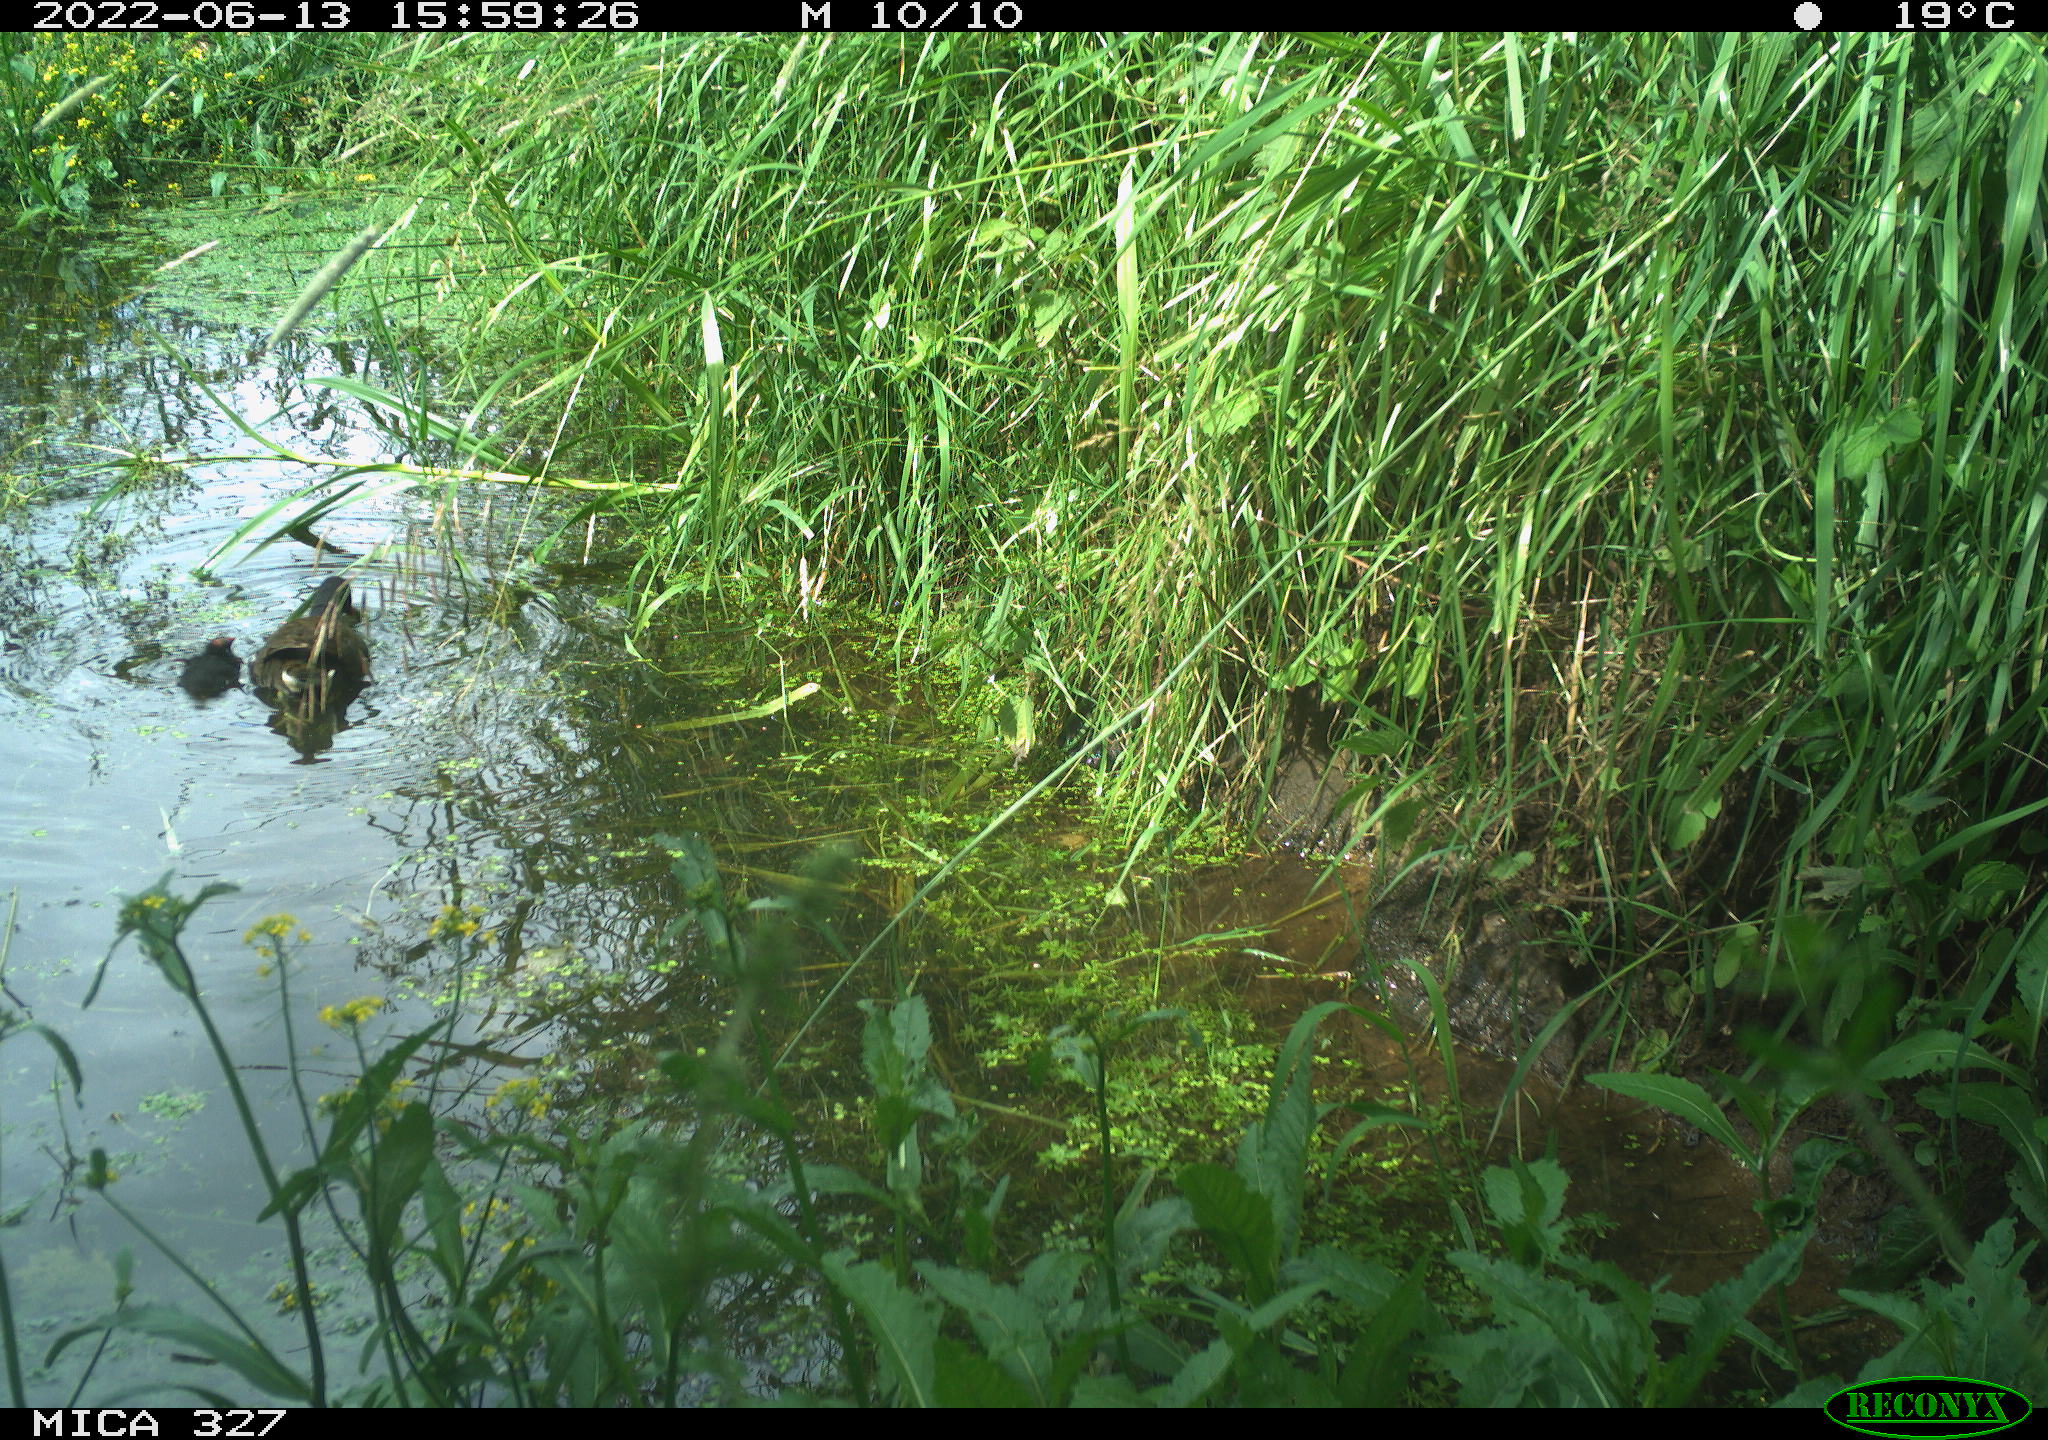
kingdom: Animalia
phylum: Chordata
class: Aves
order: Gruiformes
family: Rallidae
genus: Gallinula
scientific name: Gallinula chloropus
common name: Common moorhen
